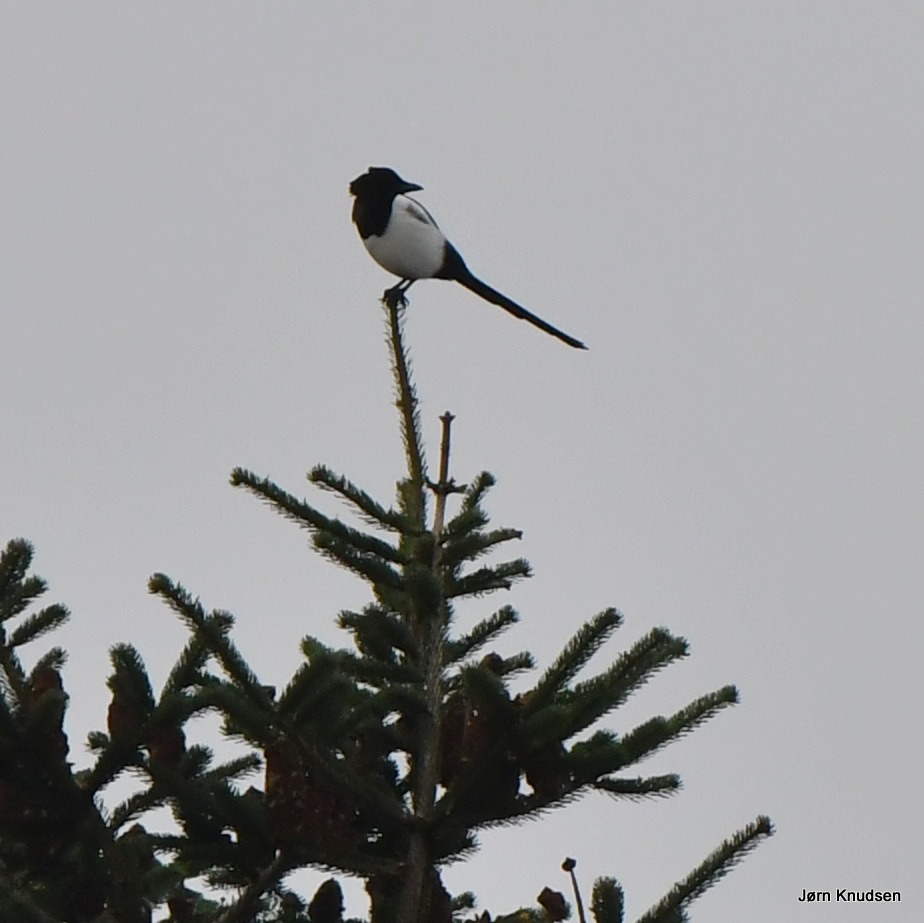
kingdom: Animalia
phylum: Chordata
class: Aves
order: Passeriformes
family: Corvidae
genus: Pica
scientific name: Pica pica
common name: Husskade
